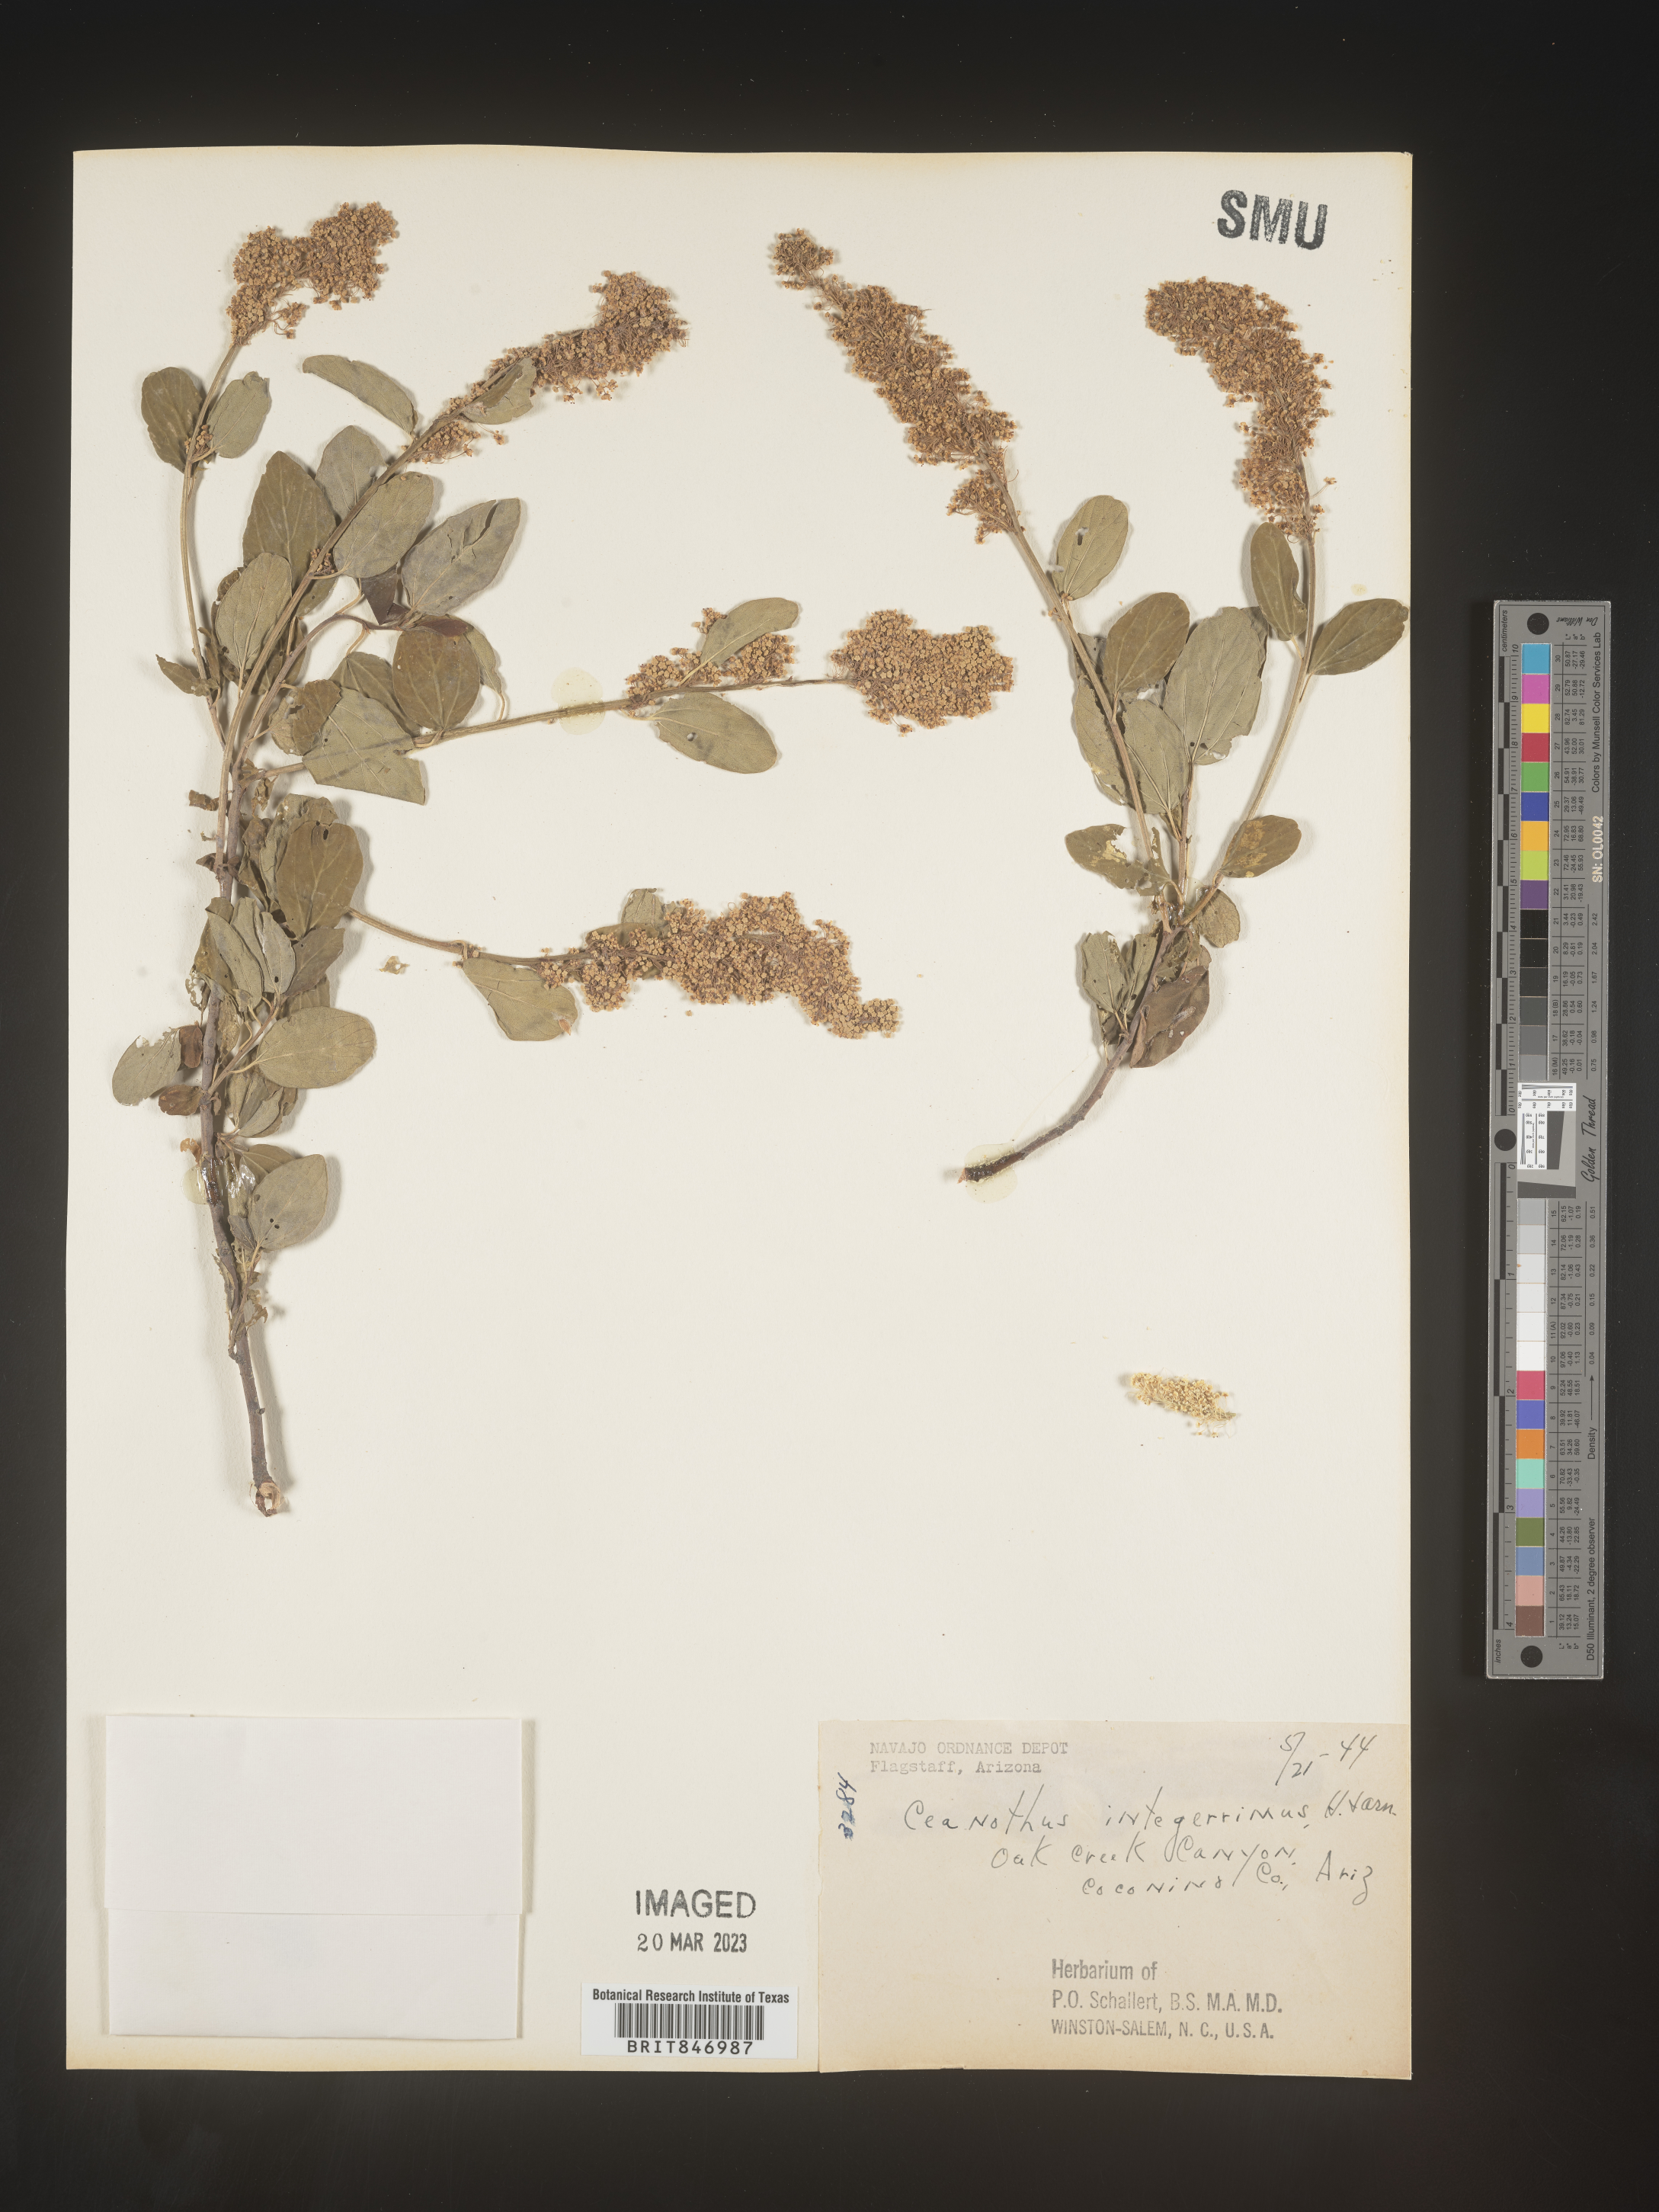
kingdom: Plantae
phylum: Tracheophyta
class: Magnoliopsida
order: Rosales
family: Rhamnaceae
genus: Ceanothus
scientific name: Ceanothus integerrimus
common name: Deerbrush ceanothus
